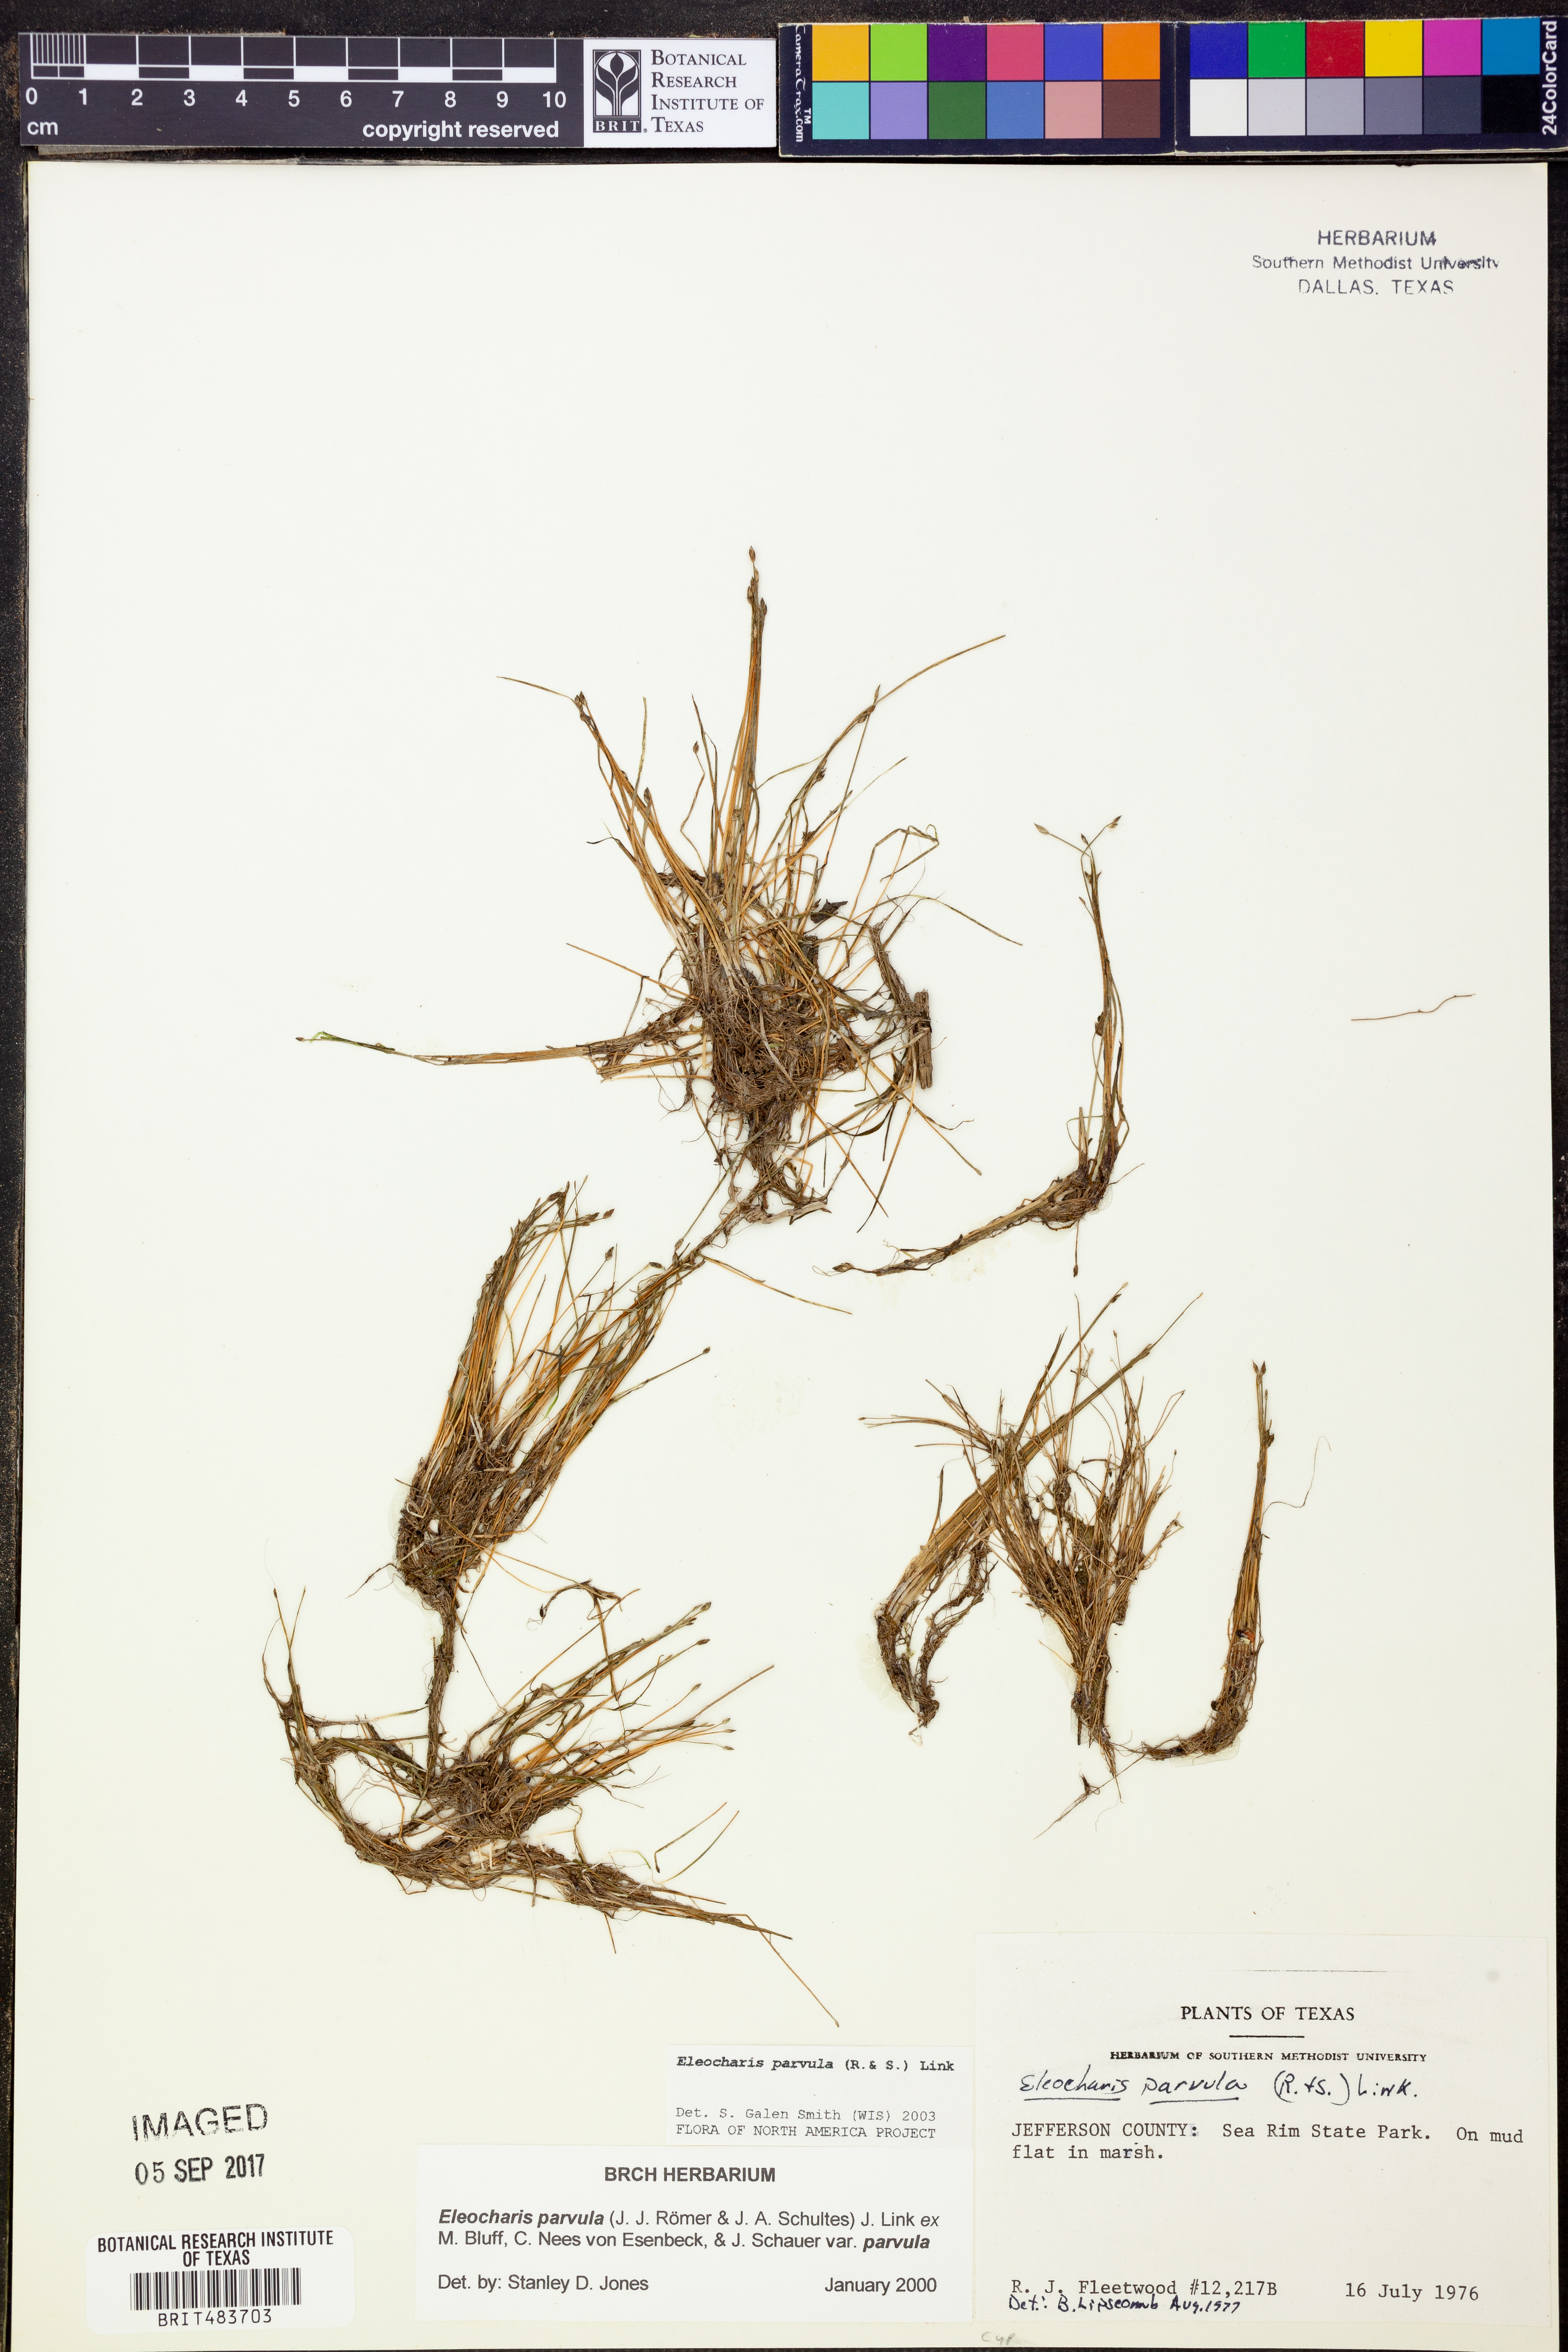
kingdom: Plantae
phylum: Tracheophyta
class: Liliopsida
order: Poales
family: Cyperaceae
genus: Eleocharis
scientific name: Eleocharis parvula
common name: Dwarf spike-rush
